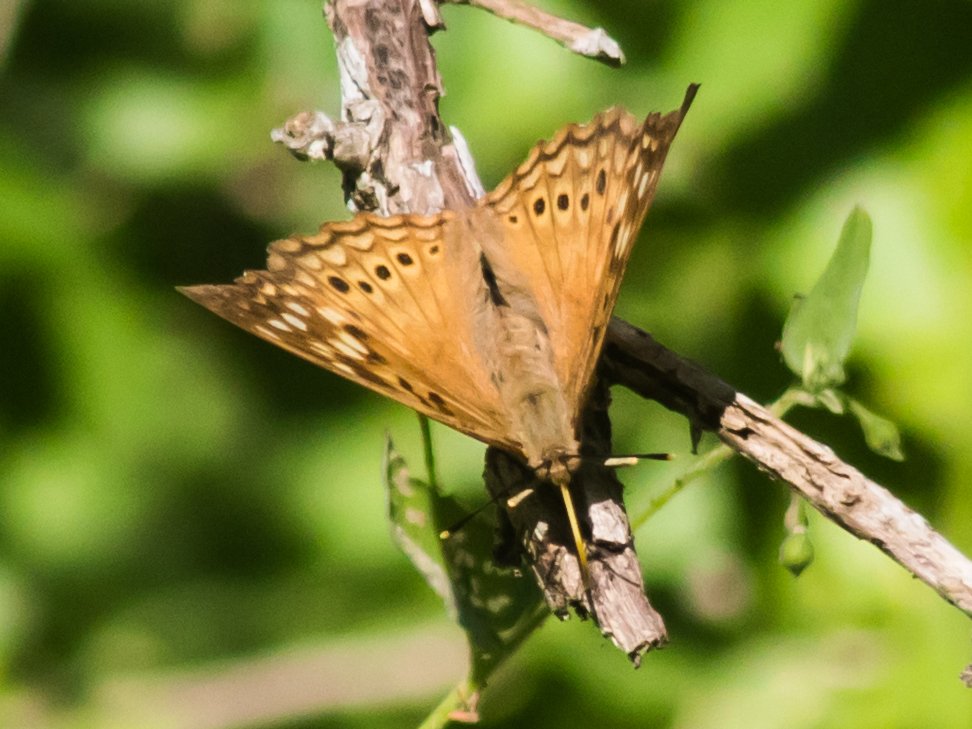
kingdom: Animalia
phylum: Arthropoda
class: Insecta
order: Lepidoptera
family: Nymphalidae
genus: Asterocampa
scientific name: Asterocampa clyton
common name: Tawny Emperor
